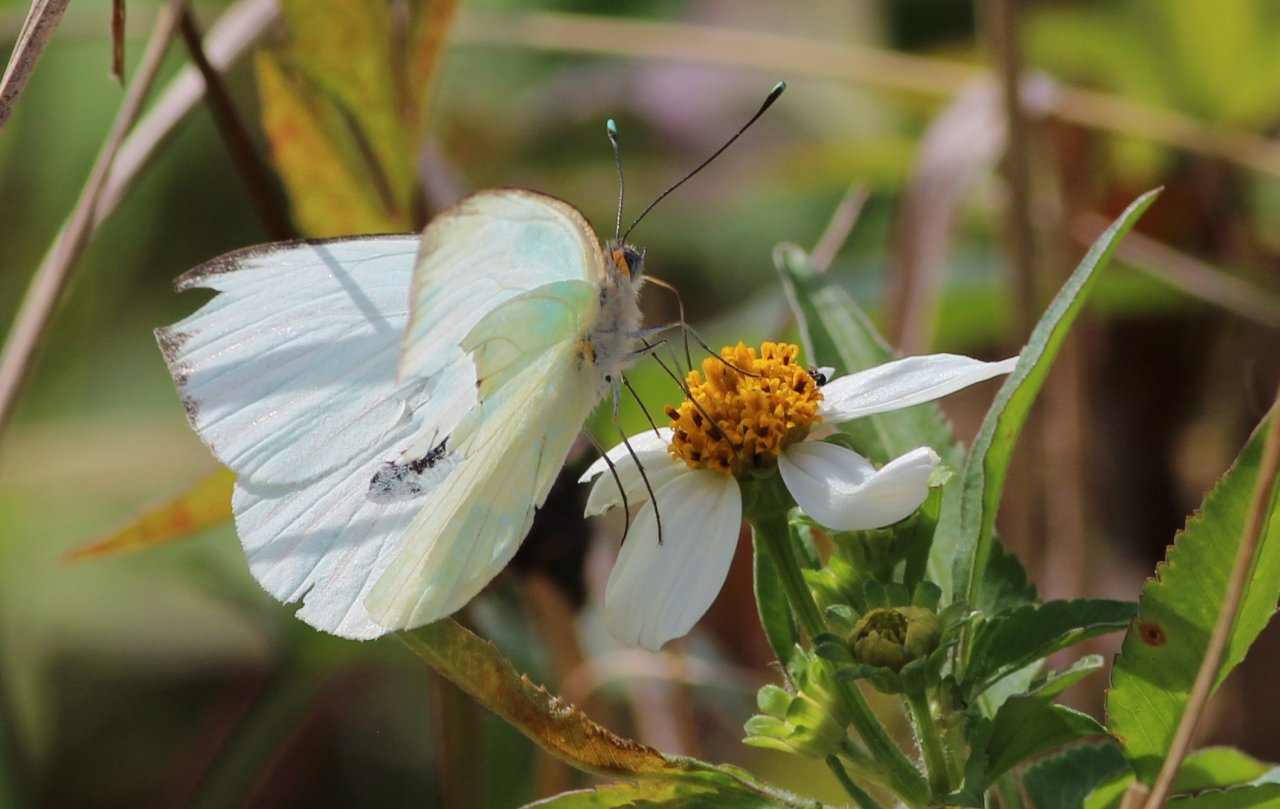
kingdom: Animalia
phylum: Arthropoda
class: Insecta
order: Lepidoptera
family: Pieridae
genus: Ascia
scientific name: Ascia monuste
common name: Great Southern White
